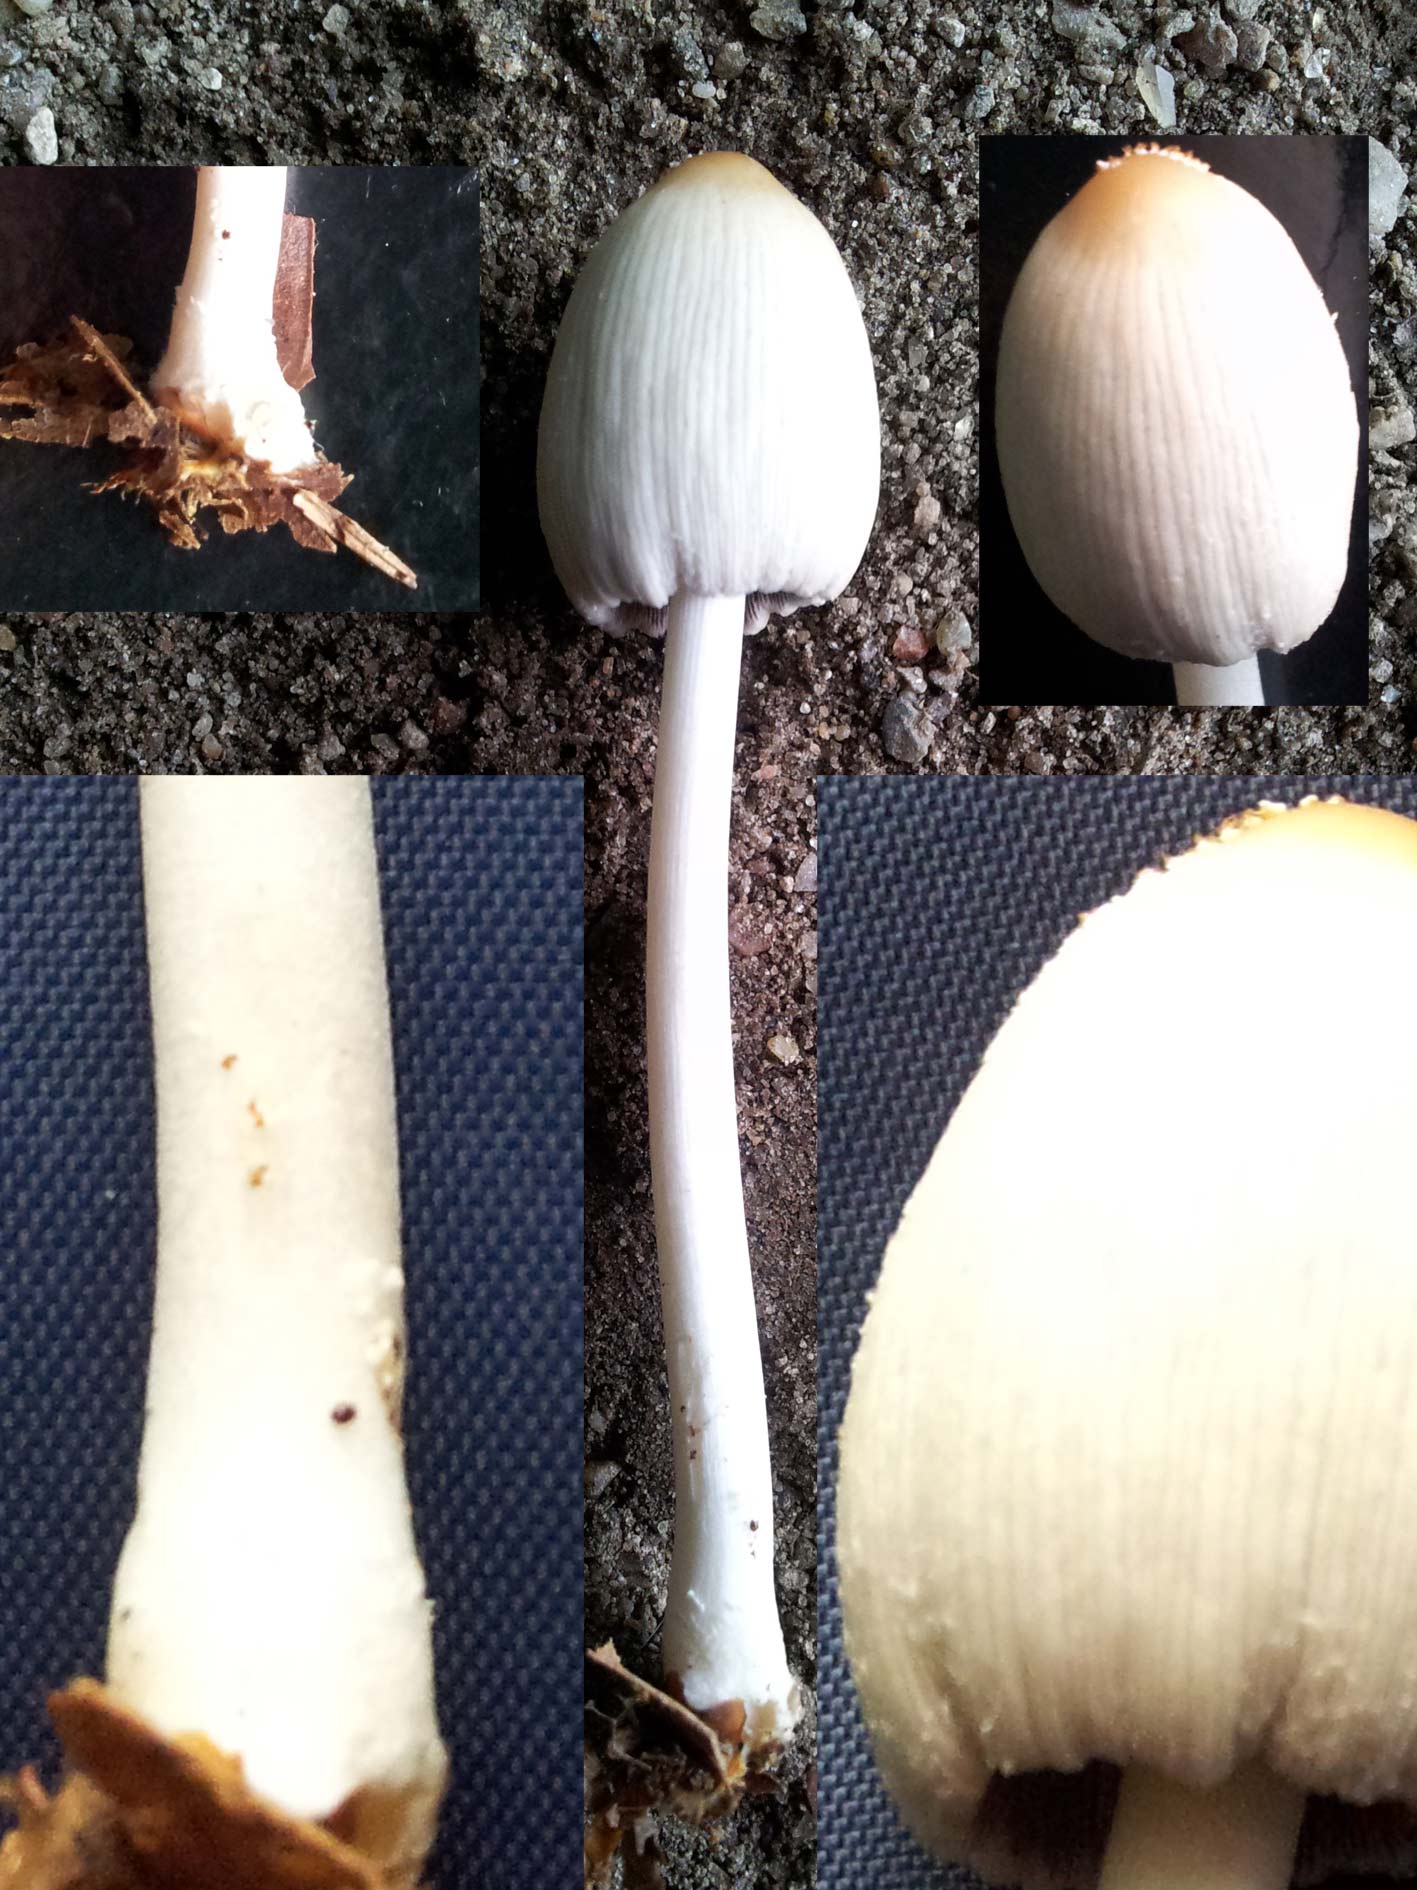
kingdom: Fungi
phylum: Basidiomycota
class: Agaricomycetes
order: Agaricales
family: Psathyrellaceae
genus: Coprinellus
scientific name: Coprinellus xanthothrix
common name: gultrådet blækhat
